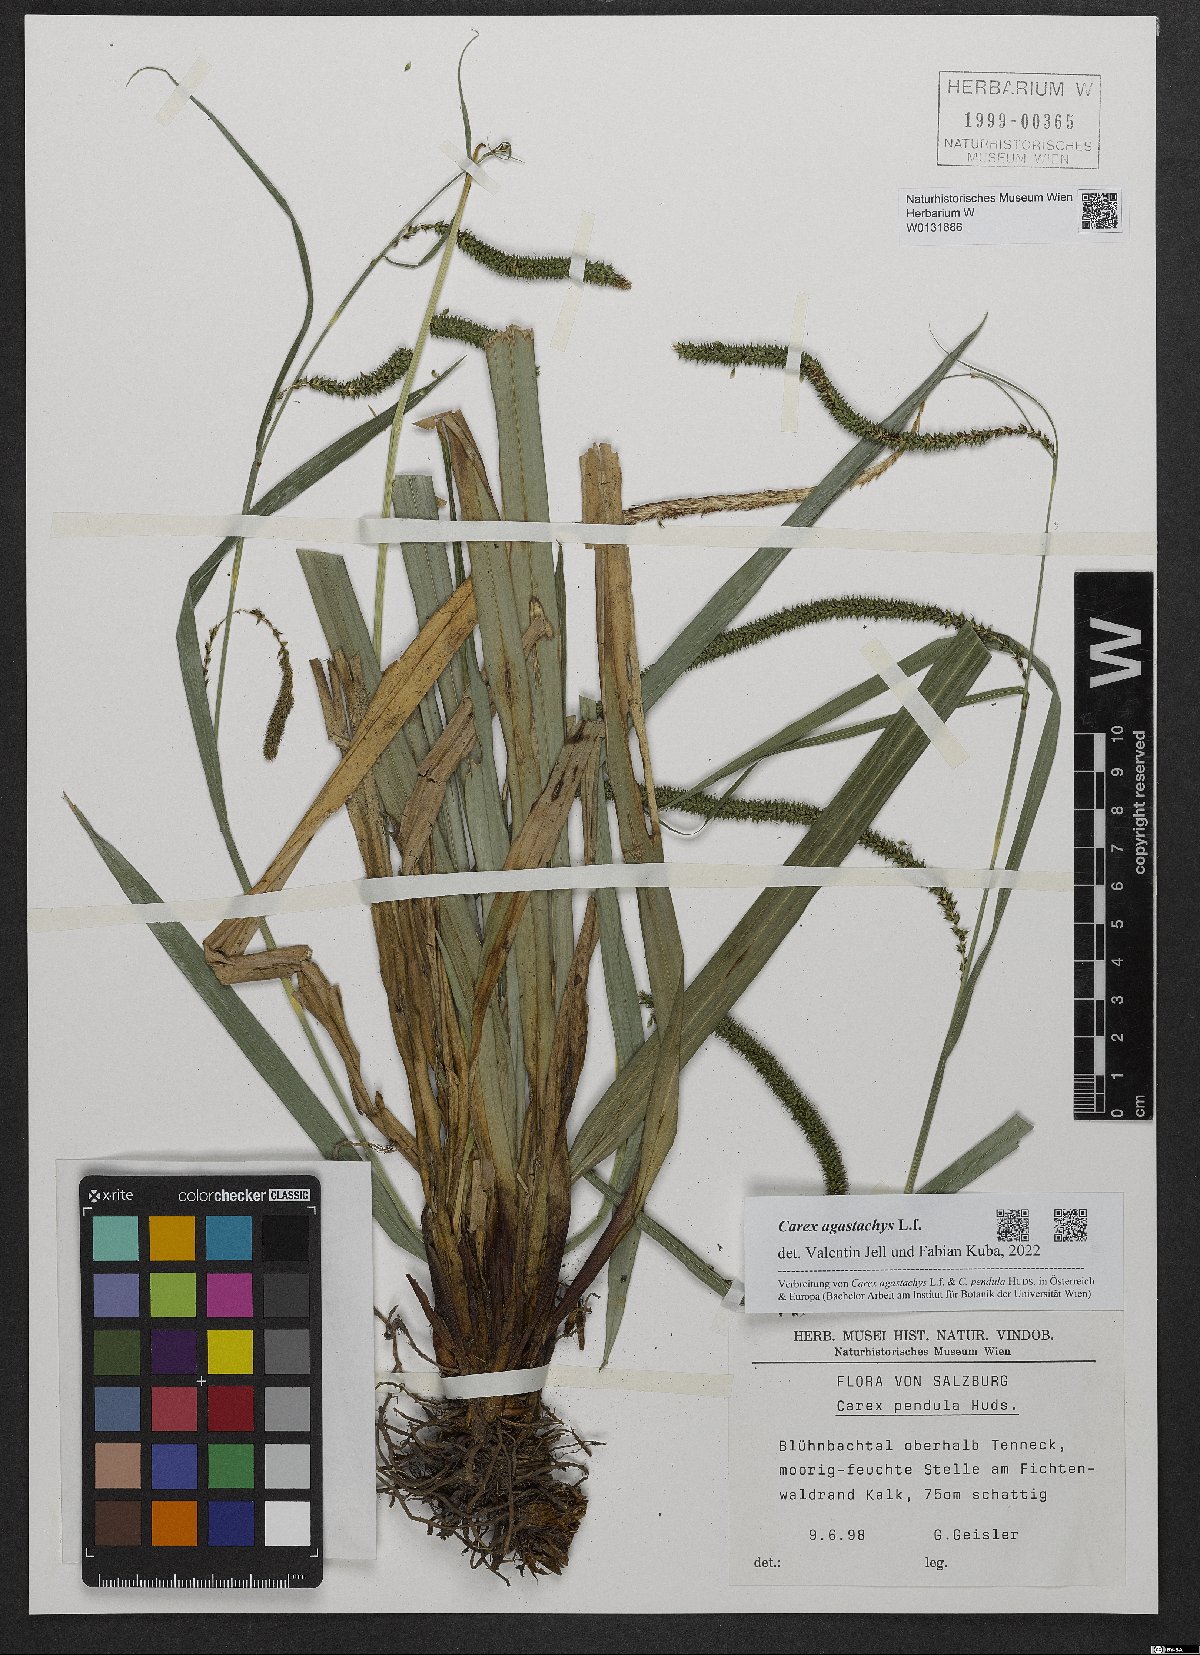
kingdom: Plantae
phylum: Tracheophyta
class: Liliopsida
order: Poales
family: Cyperaceae
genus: Carex
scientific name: Carex agastachys
